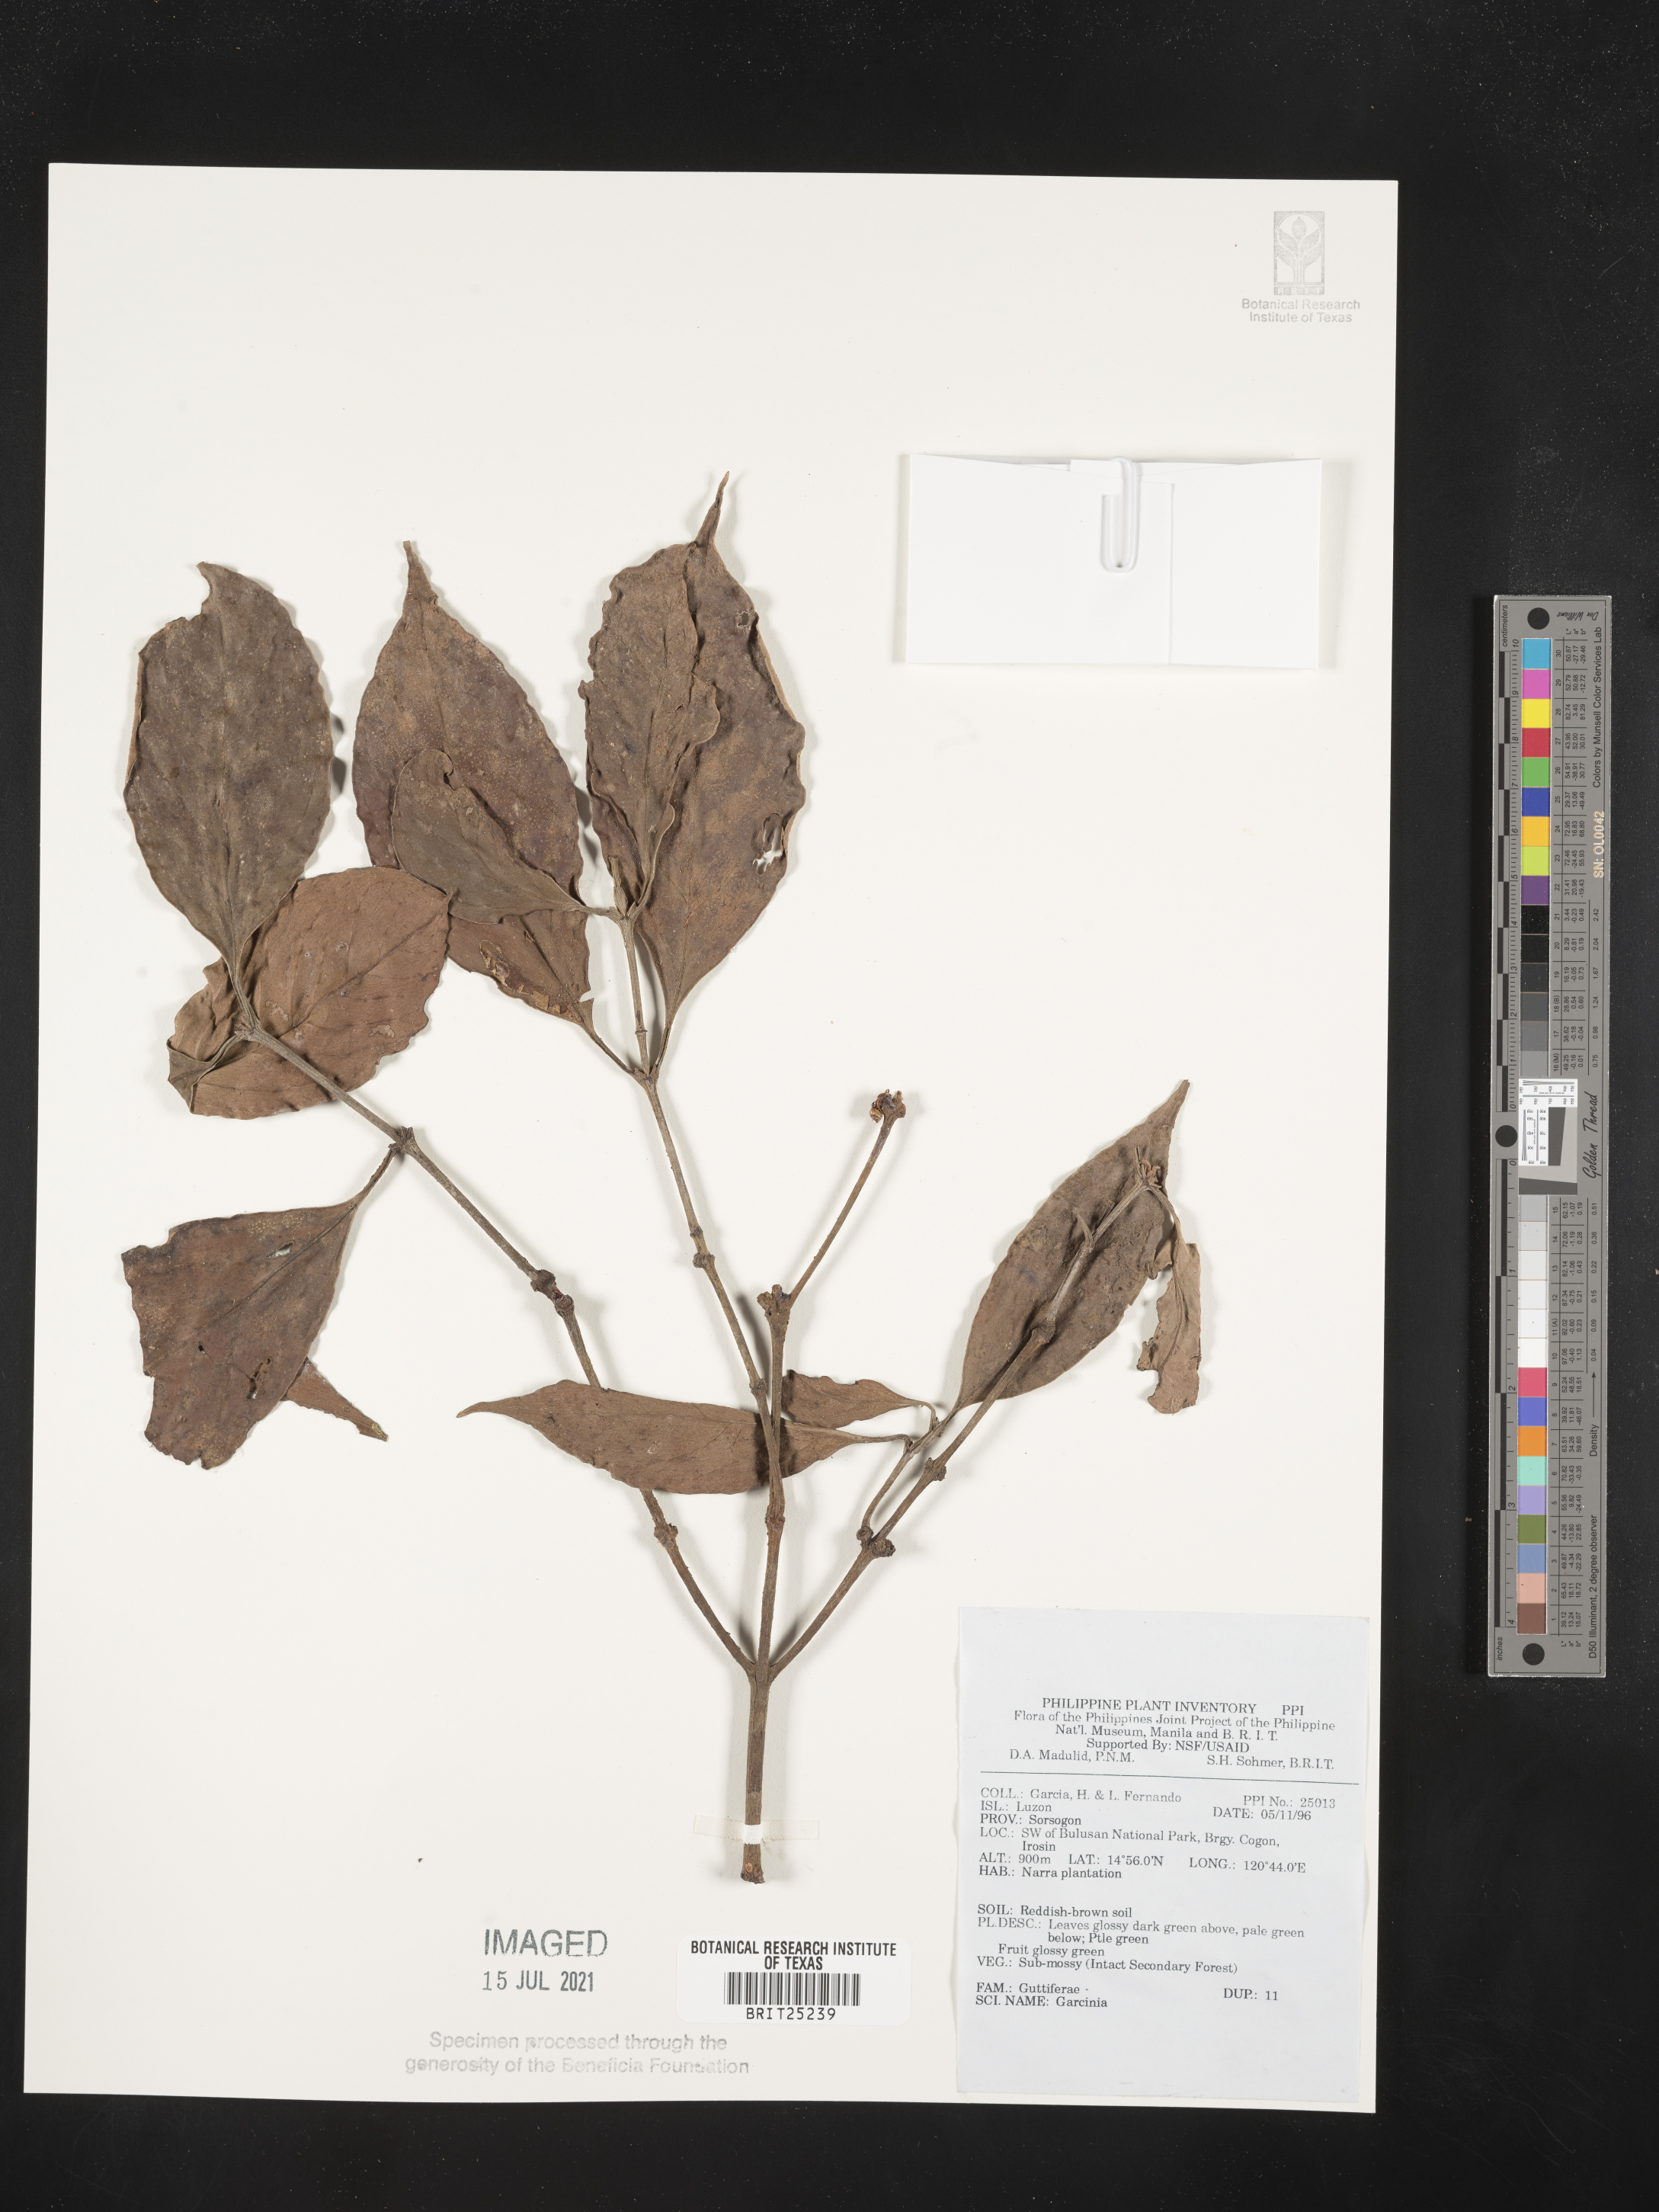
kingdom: Plantae
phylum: Tracheophyta
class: Magnoliopsida
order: Malpighiales
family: Clusiaceae
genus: Garcinia
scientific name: Garcinia
